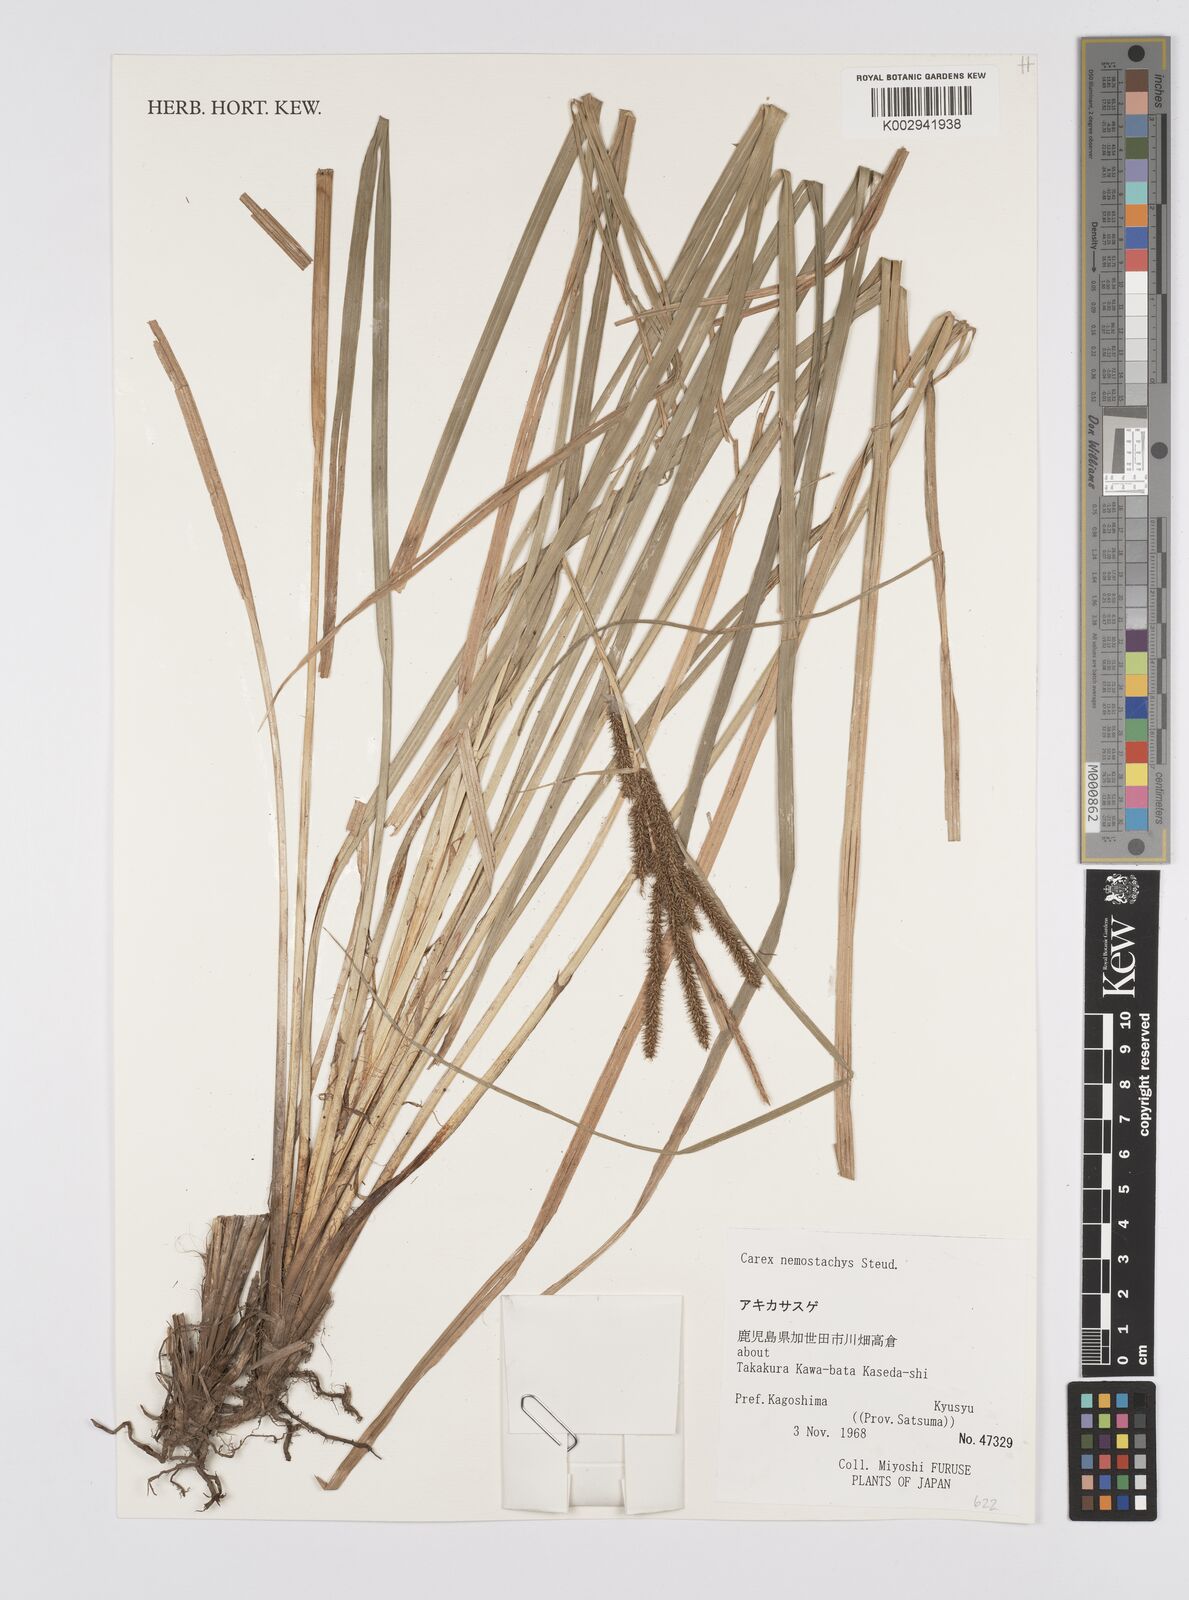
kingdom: Plantae
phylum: Tracheophyta
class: Liliopsida
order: Poales
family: Cyperaceae
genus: Carex
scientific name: Carex nemostachys
